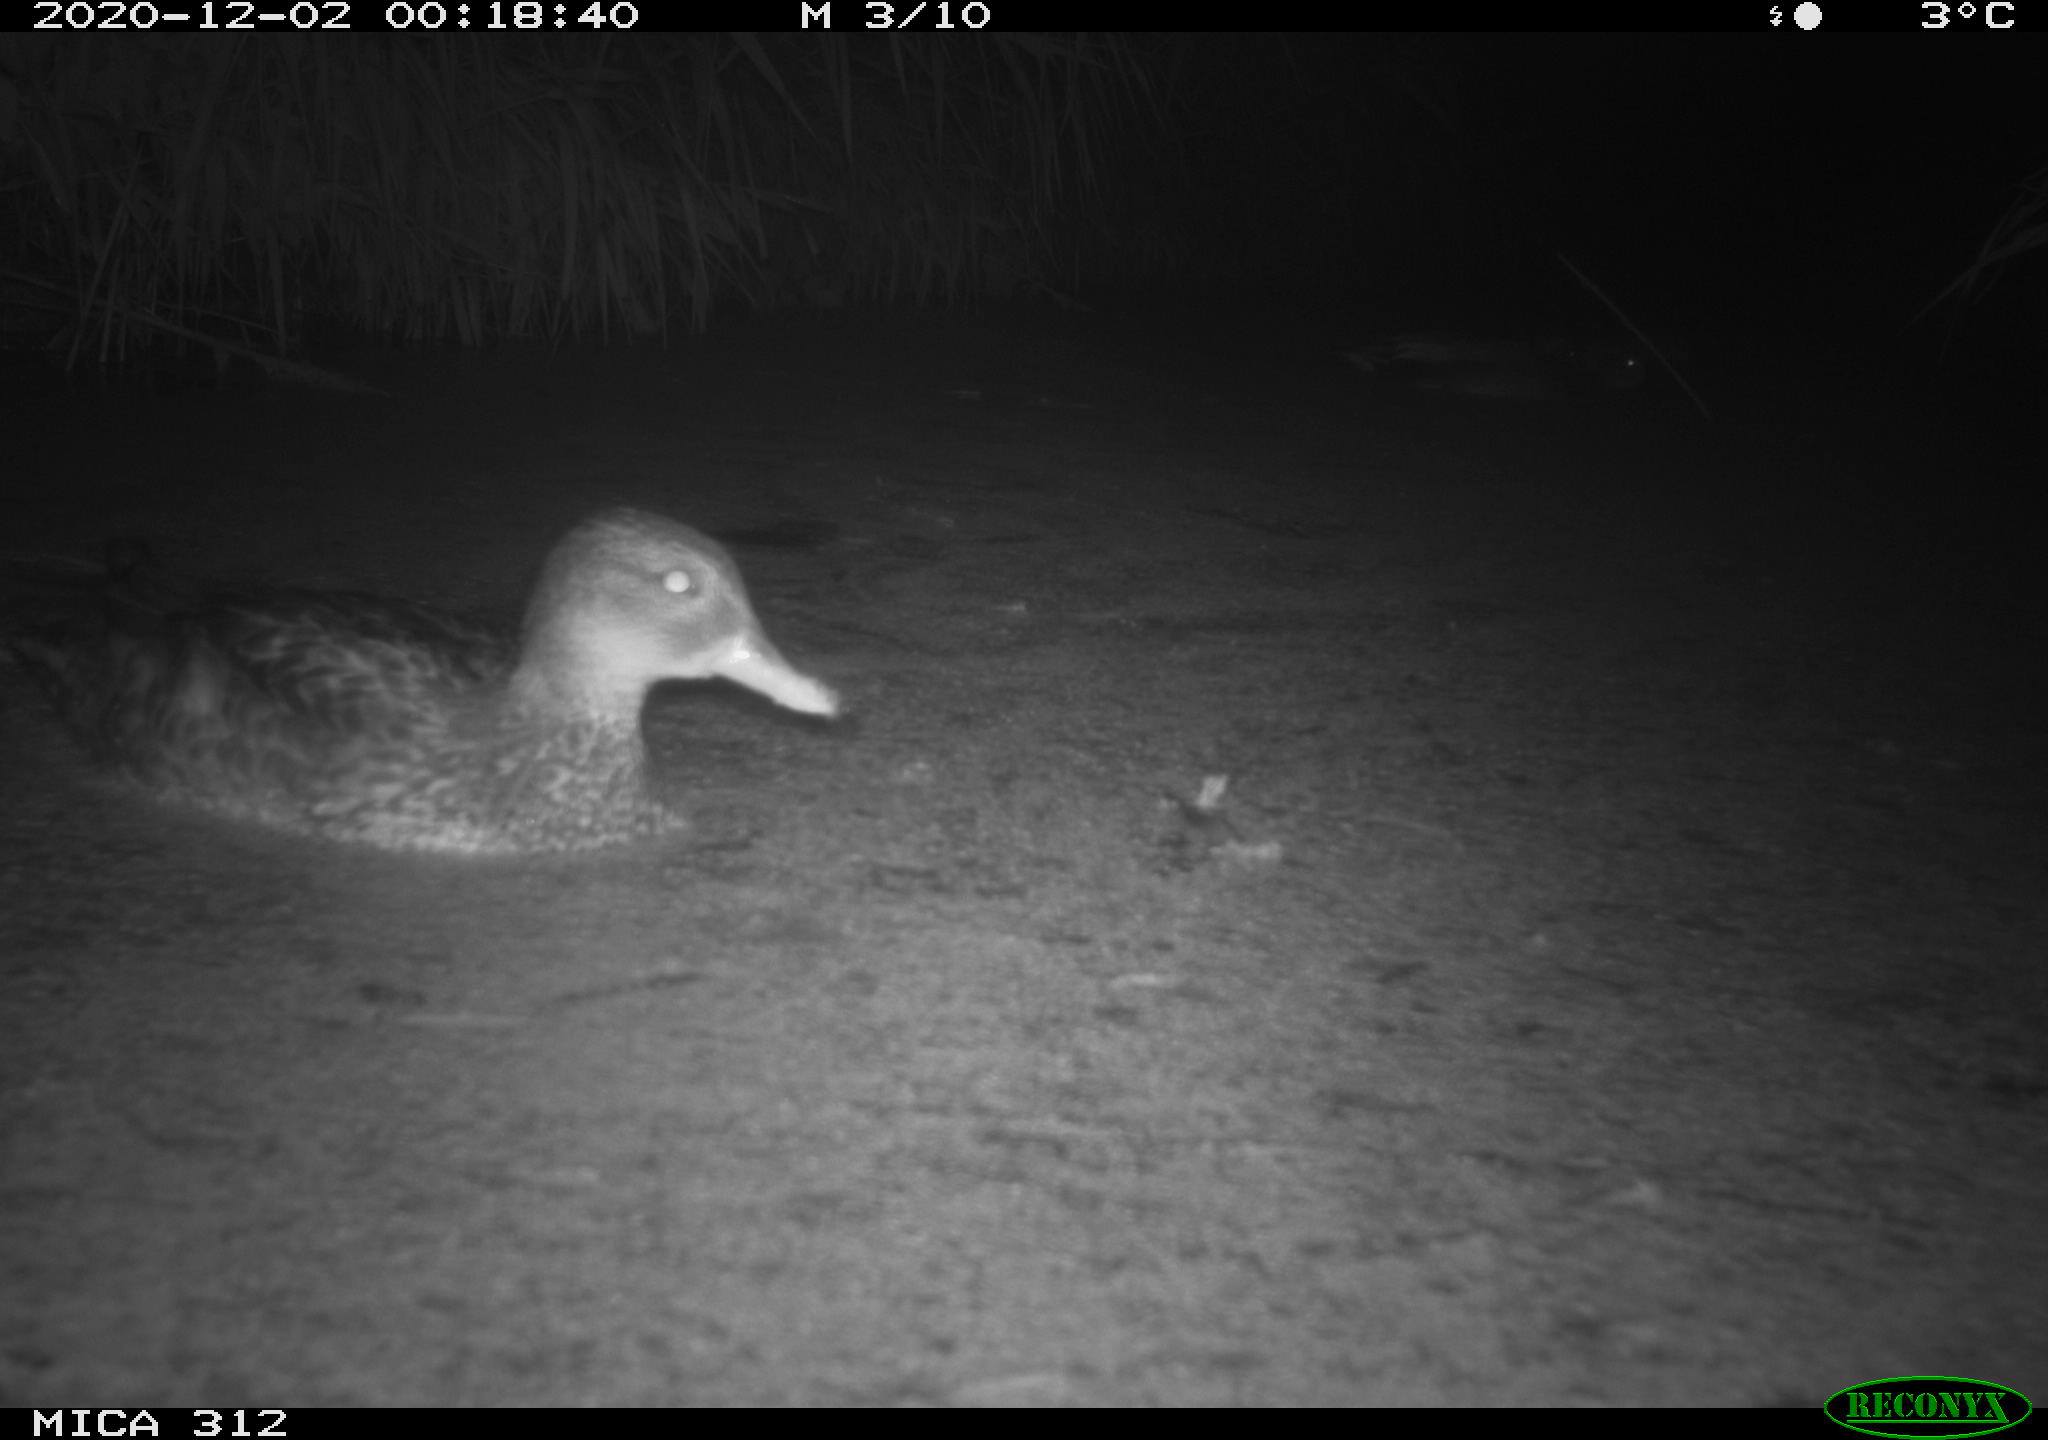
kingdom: Animalia
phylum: Chordata
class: Aves
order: Anseriformes
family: Anatidae
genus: Anas
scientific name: Anas
